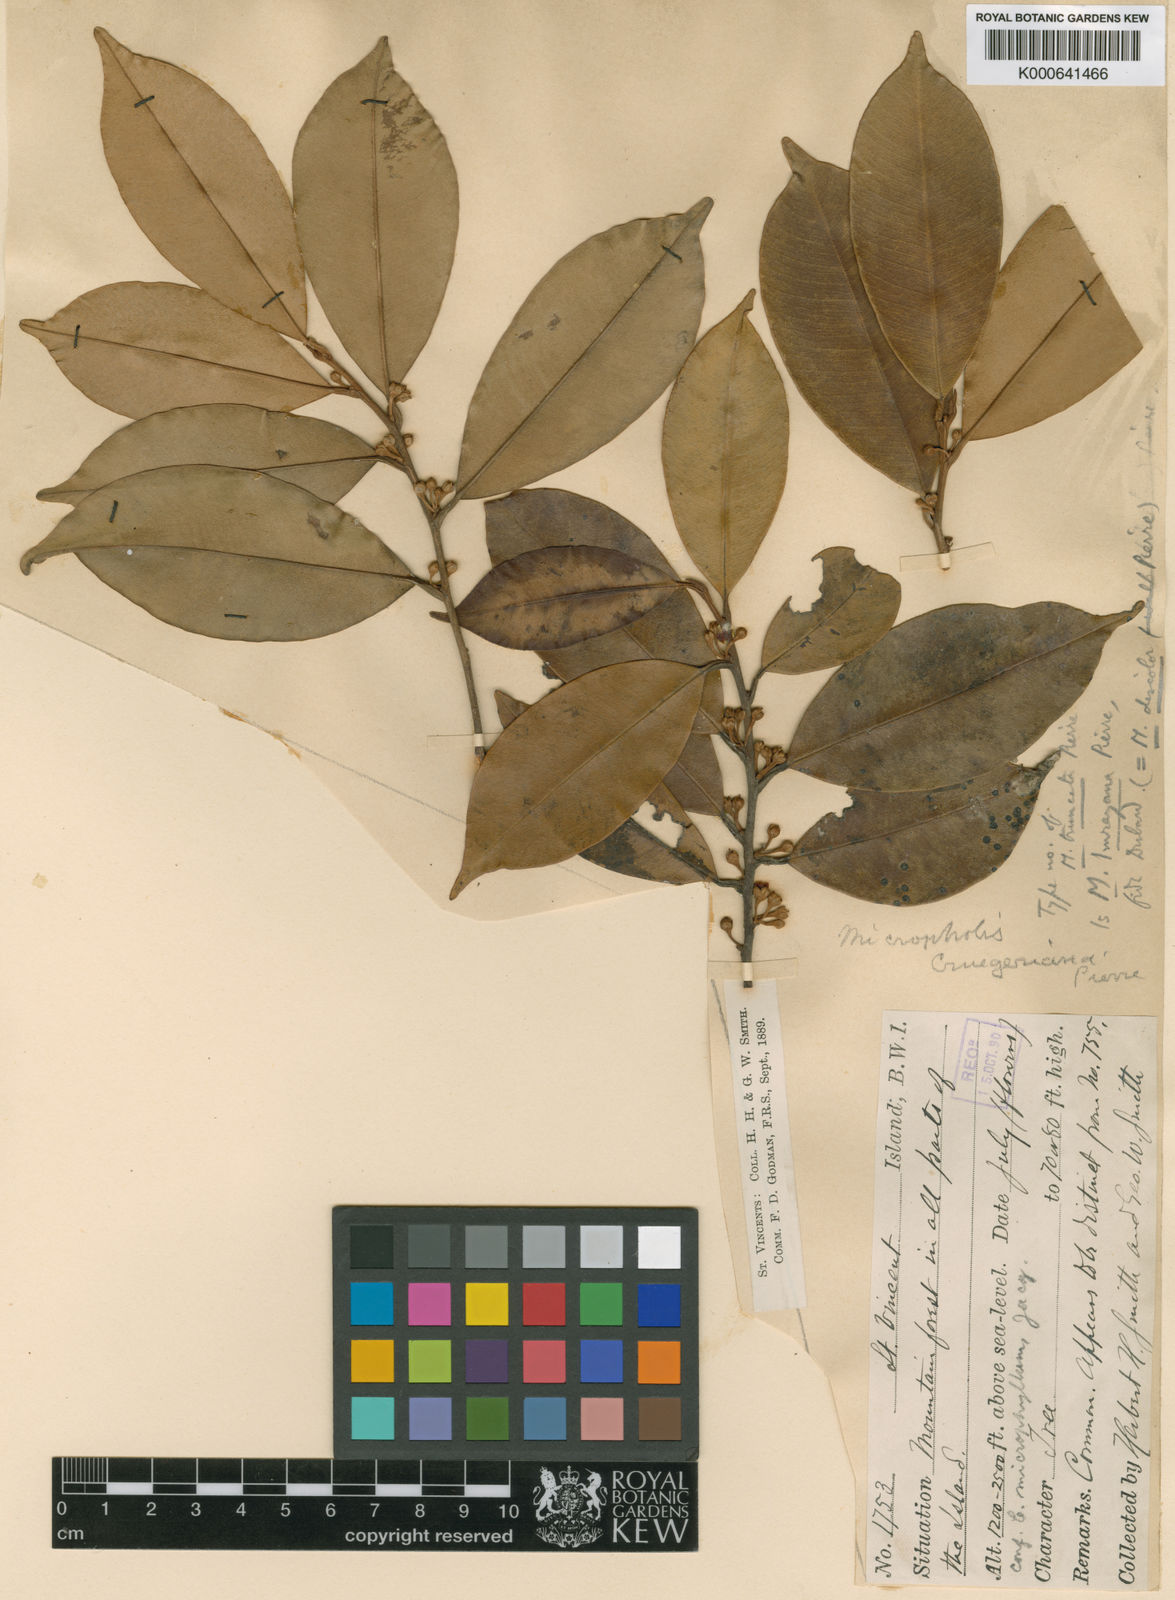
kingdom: Plantae
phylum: Tracheophyta
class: Magnoliopsida
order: Ericales
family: Sapotaceae
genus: Micropholis
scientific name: Micropholis guyanensis
